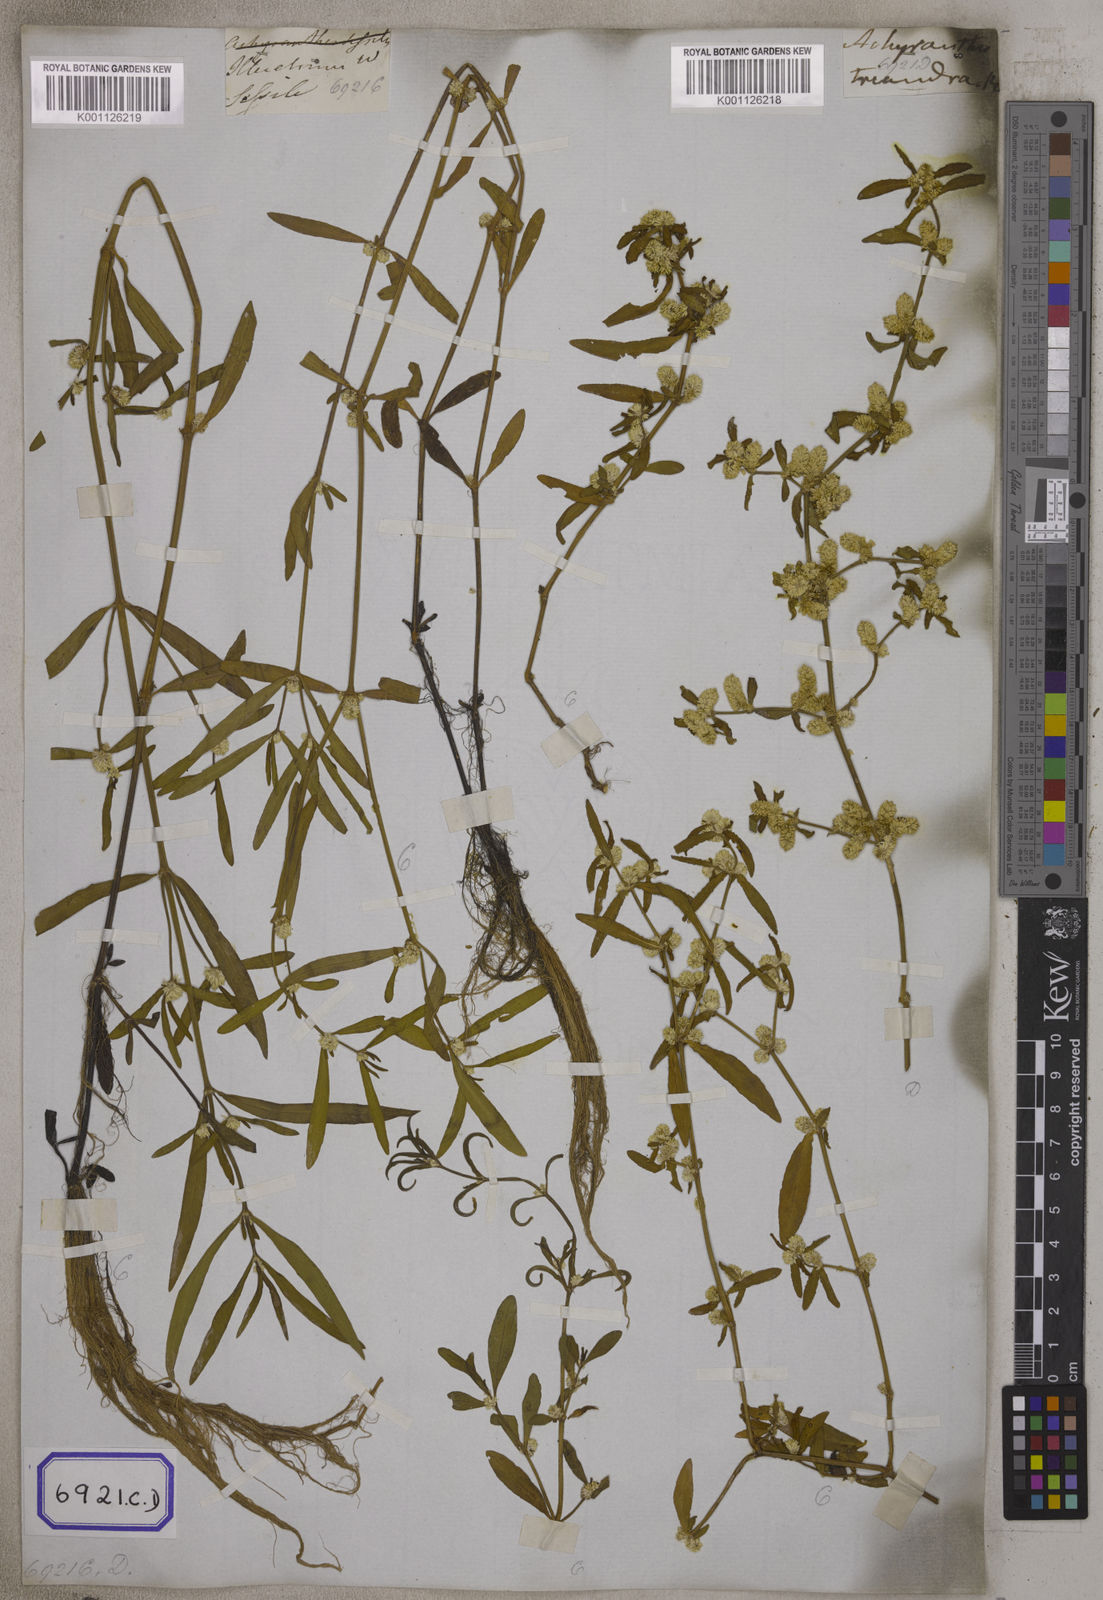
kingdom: Plantae
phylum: Tracheophyta
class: Magnoliopsida
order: Caryophyllales
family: Amaranthaceae
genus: Alternanthera
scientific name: Alternanthera
